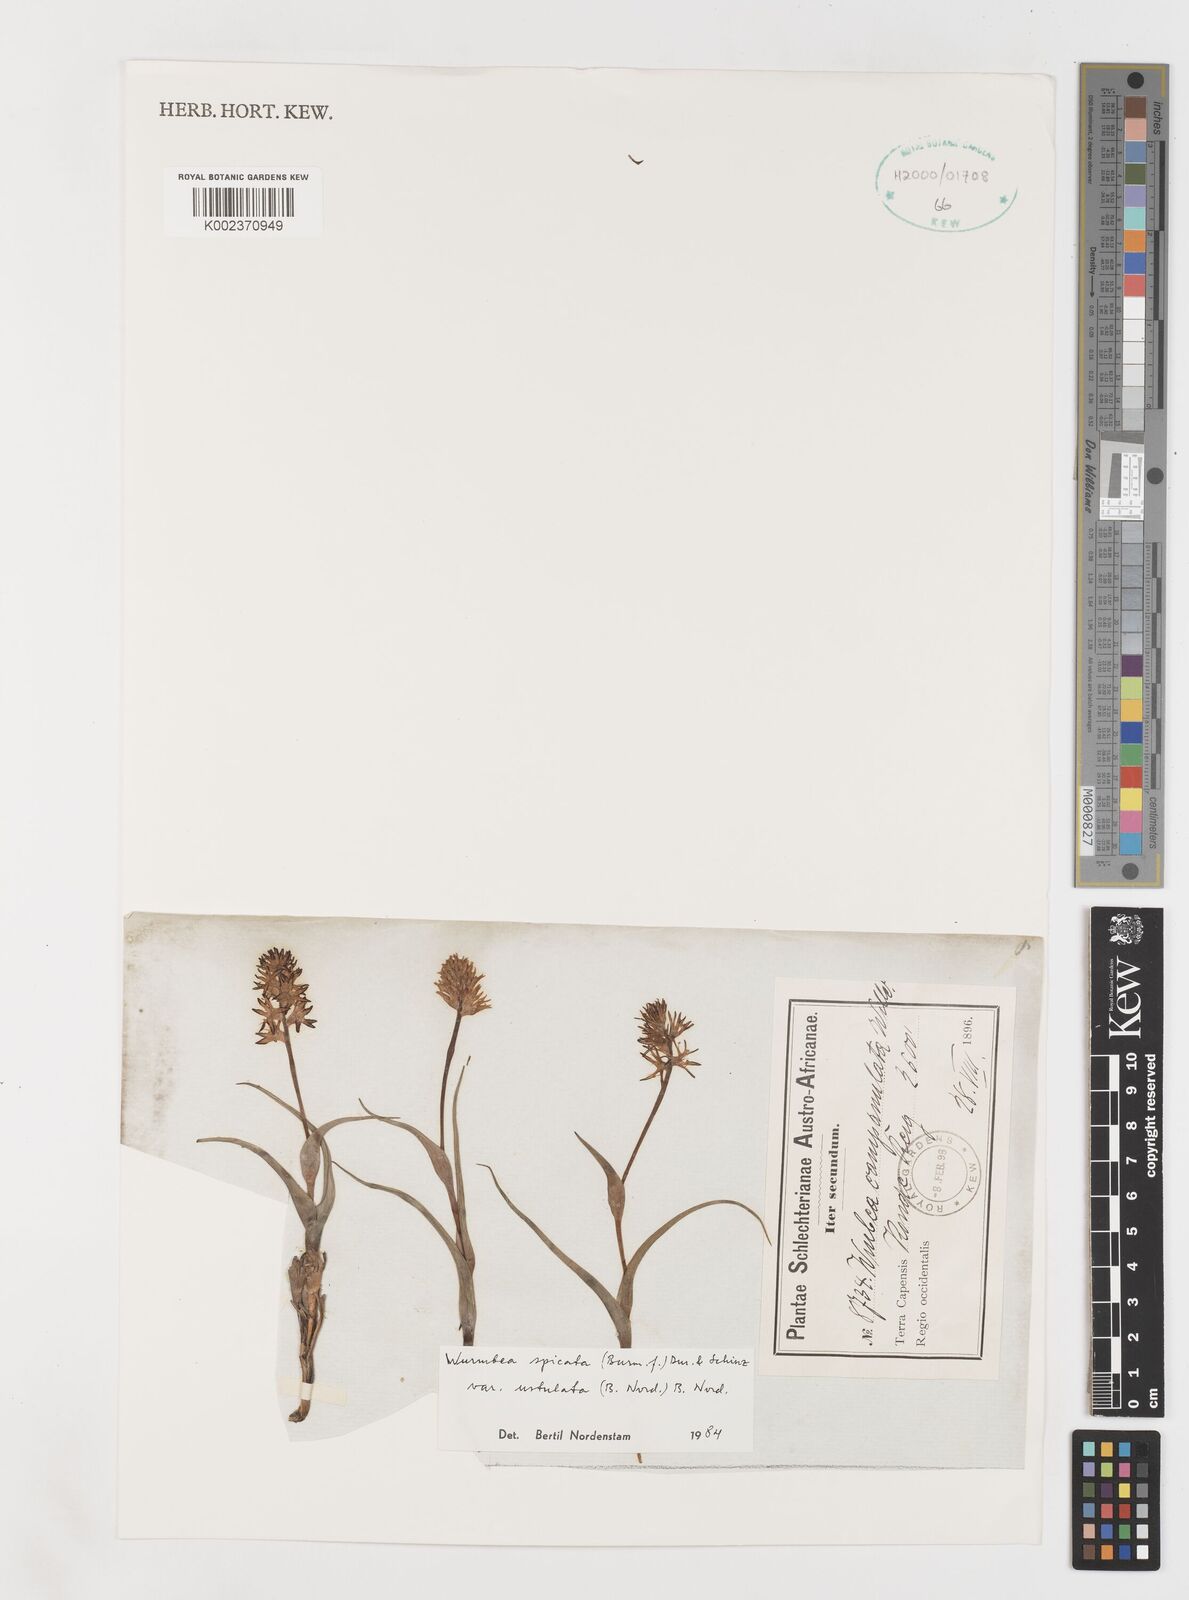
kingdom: Plantae
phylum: Tracheophyta
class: Liliopsida
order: Liliales
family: Colchicaceae
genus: Wurmbea
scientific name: Wurmbea spicata
